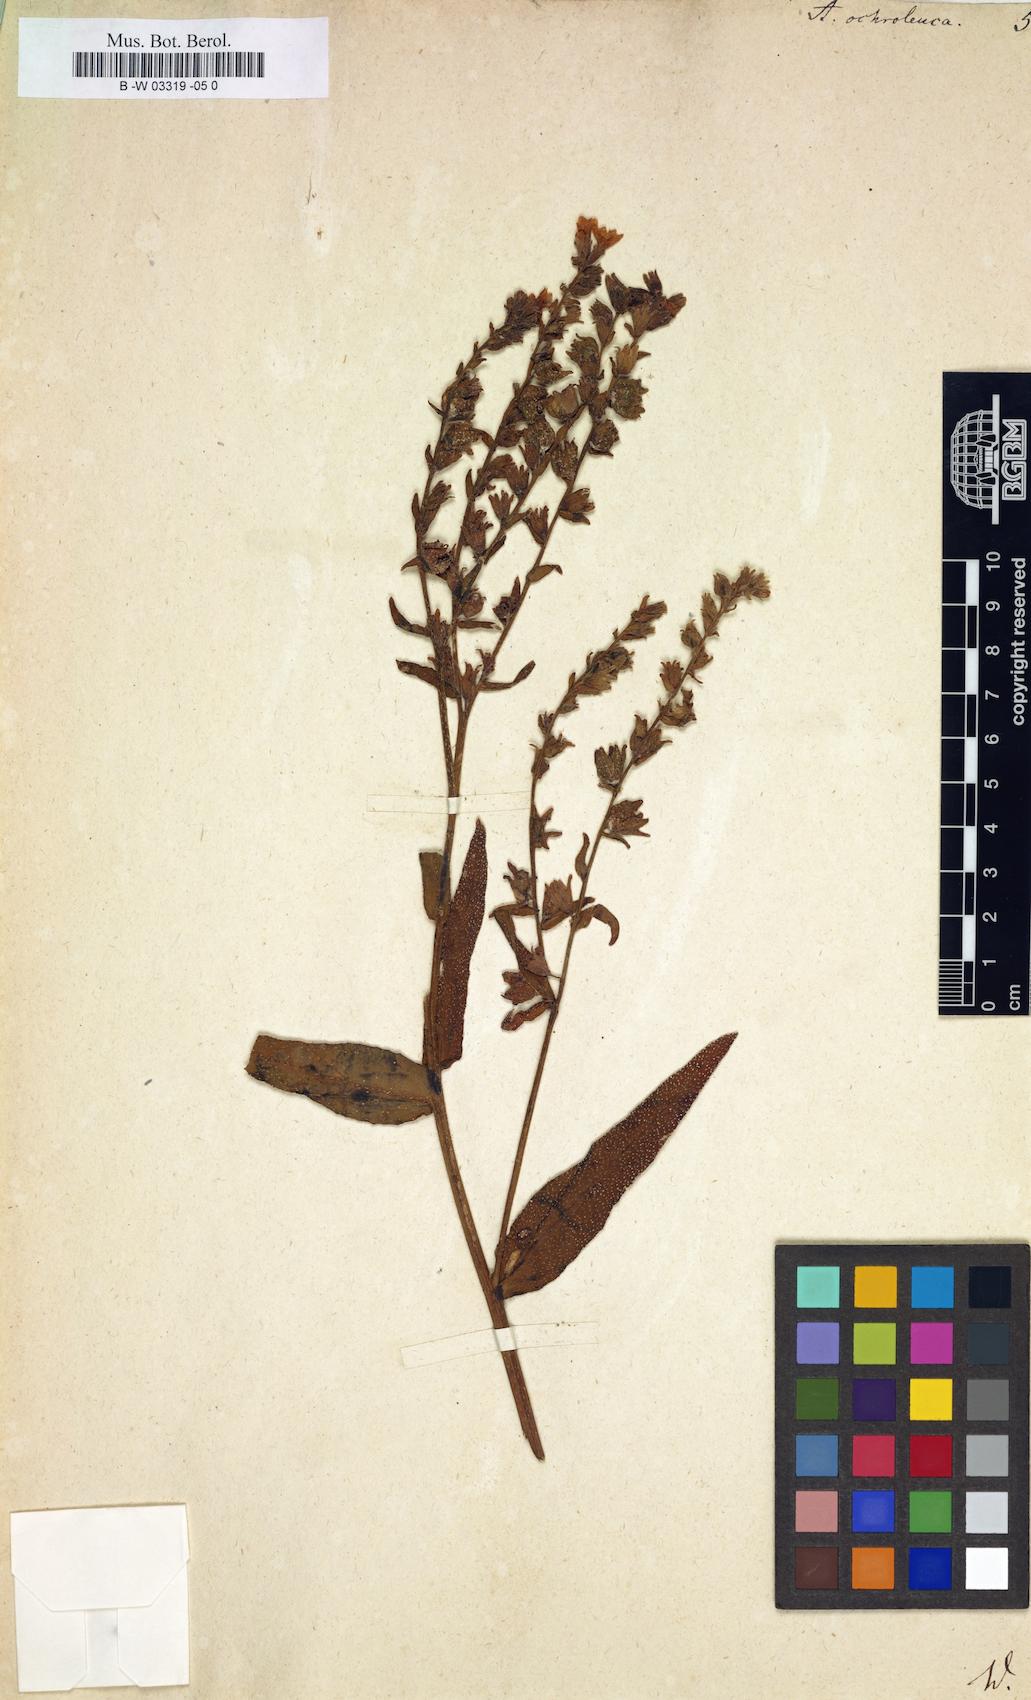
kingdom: Plantae
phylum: Tracheophyta
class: Magnoliopsida
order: Boraginales
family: Boraginaceae
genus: Anchusa
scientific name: Anchusa ochroleuca
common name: Yellow alkanet
